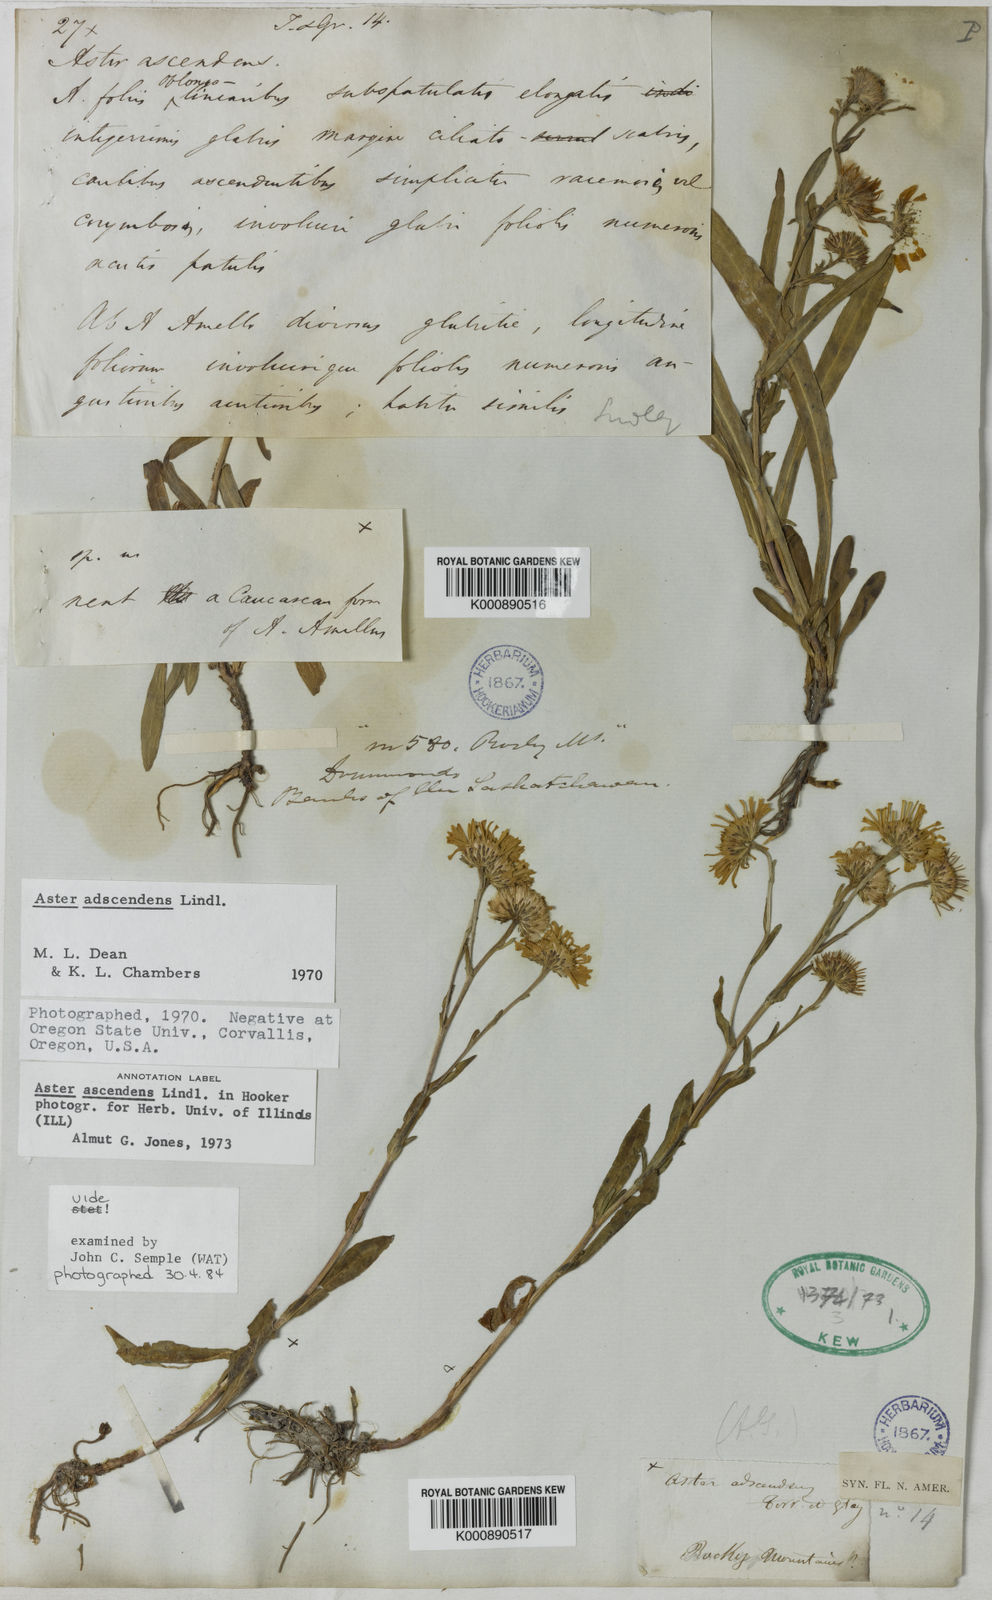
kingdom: Plantae
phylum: Tracheophyta
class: Magnoliopsida
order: Asterales
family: Asteraceae
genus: Aster
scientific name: Aster adscendens
